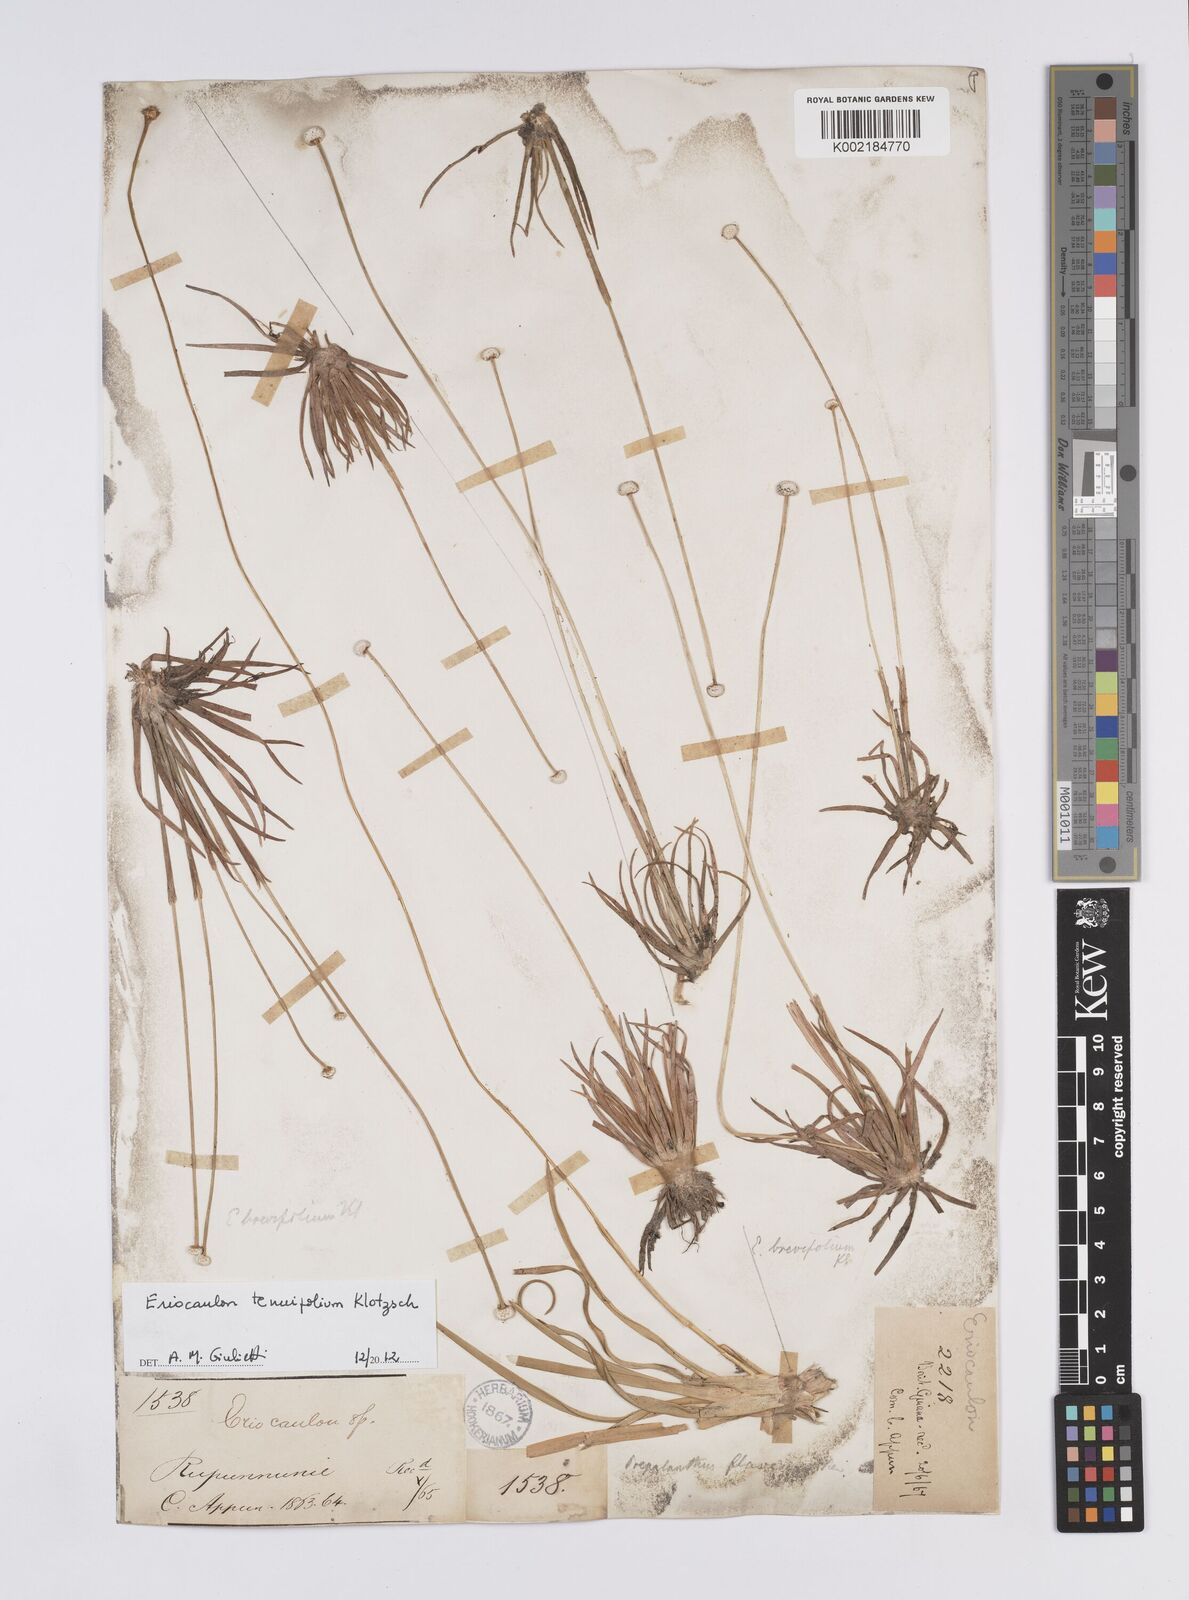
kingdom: Plantae
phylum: Tracheophyta
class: Liliopsida
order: Poales
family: Eriocaulaceae
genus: Eriocaulon
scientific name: Eriocaulon tenuifolium
